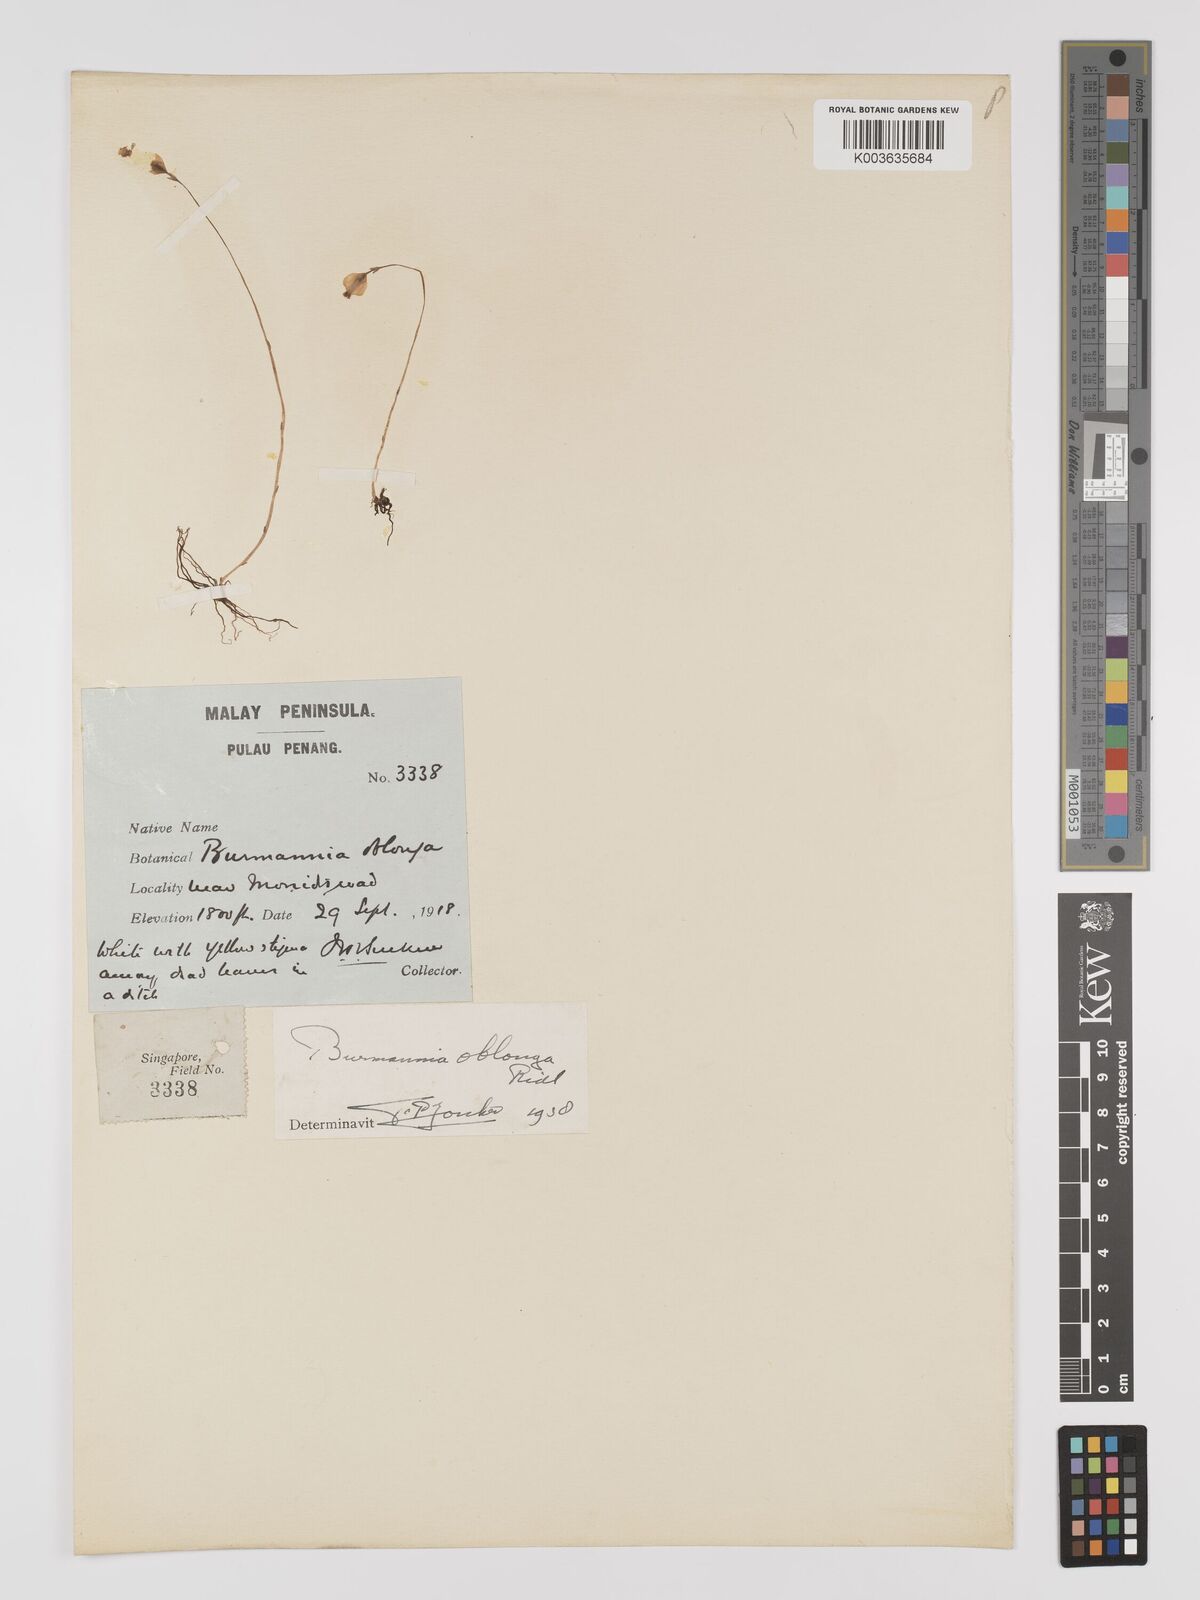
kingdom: Plantae
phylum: Tracheophyta
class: Liliopsida
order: Dioscoreales
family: Burmanniaceae
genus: Burmannia
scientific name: Burmannia oblonga
